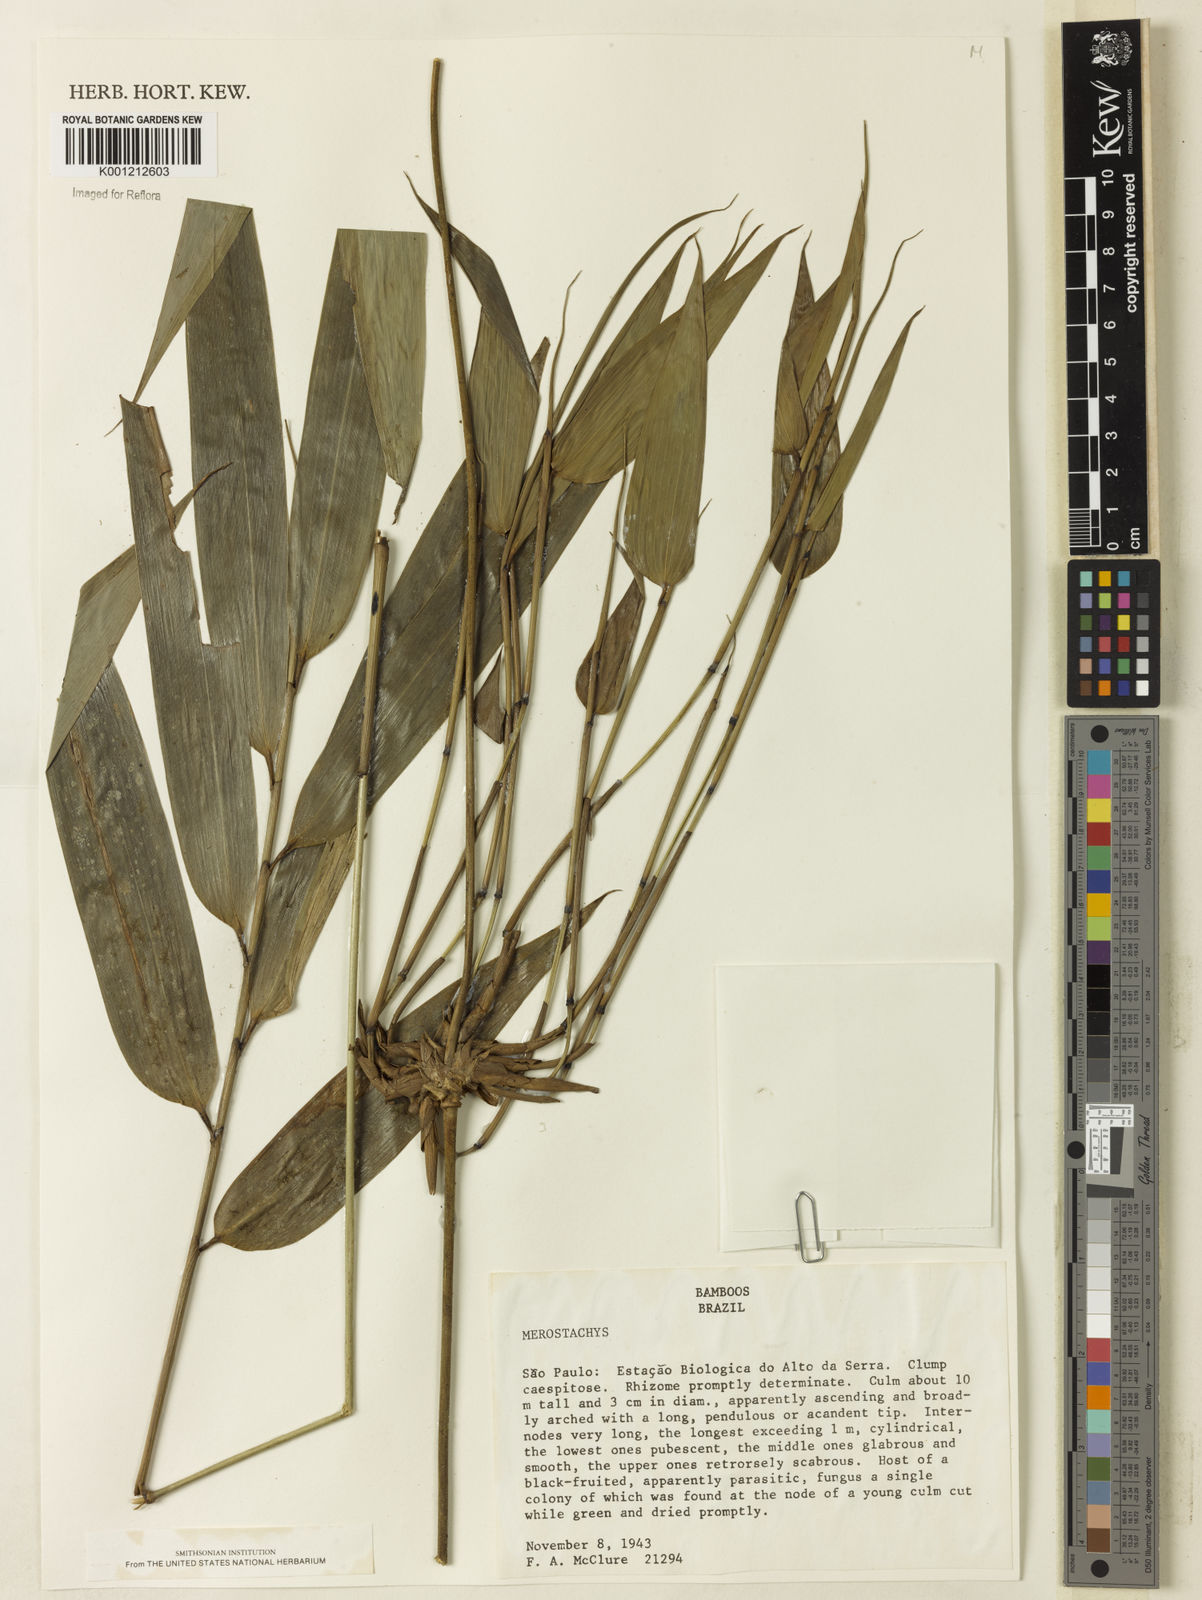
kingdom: Plantae
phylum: Tracheophyta
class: Liliopsida
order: Poales
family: Poaceae
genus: Merostachys
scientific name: Merostachys
